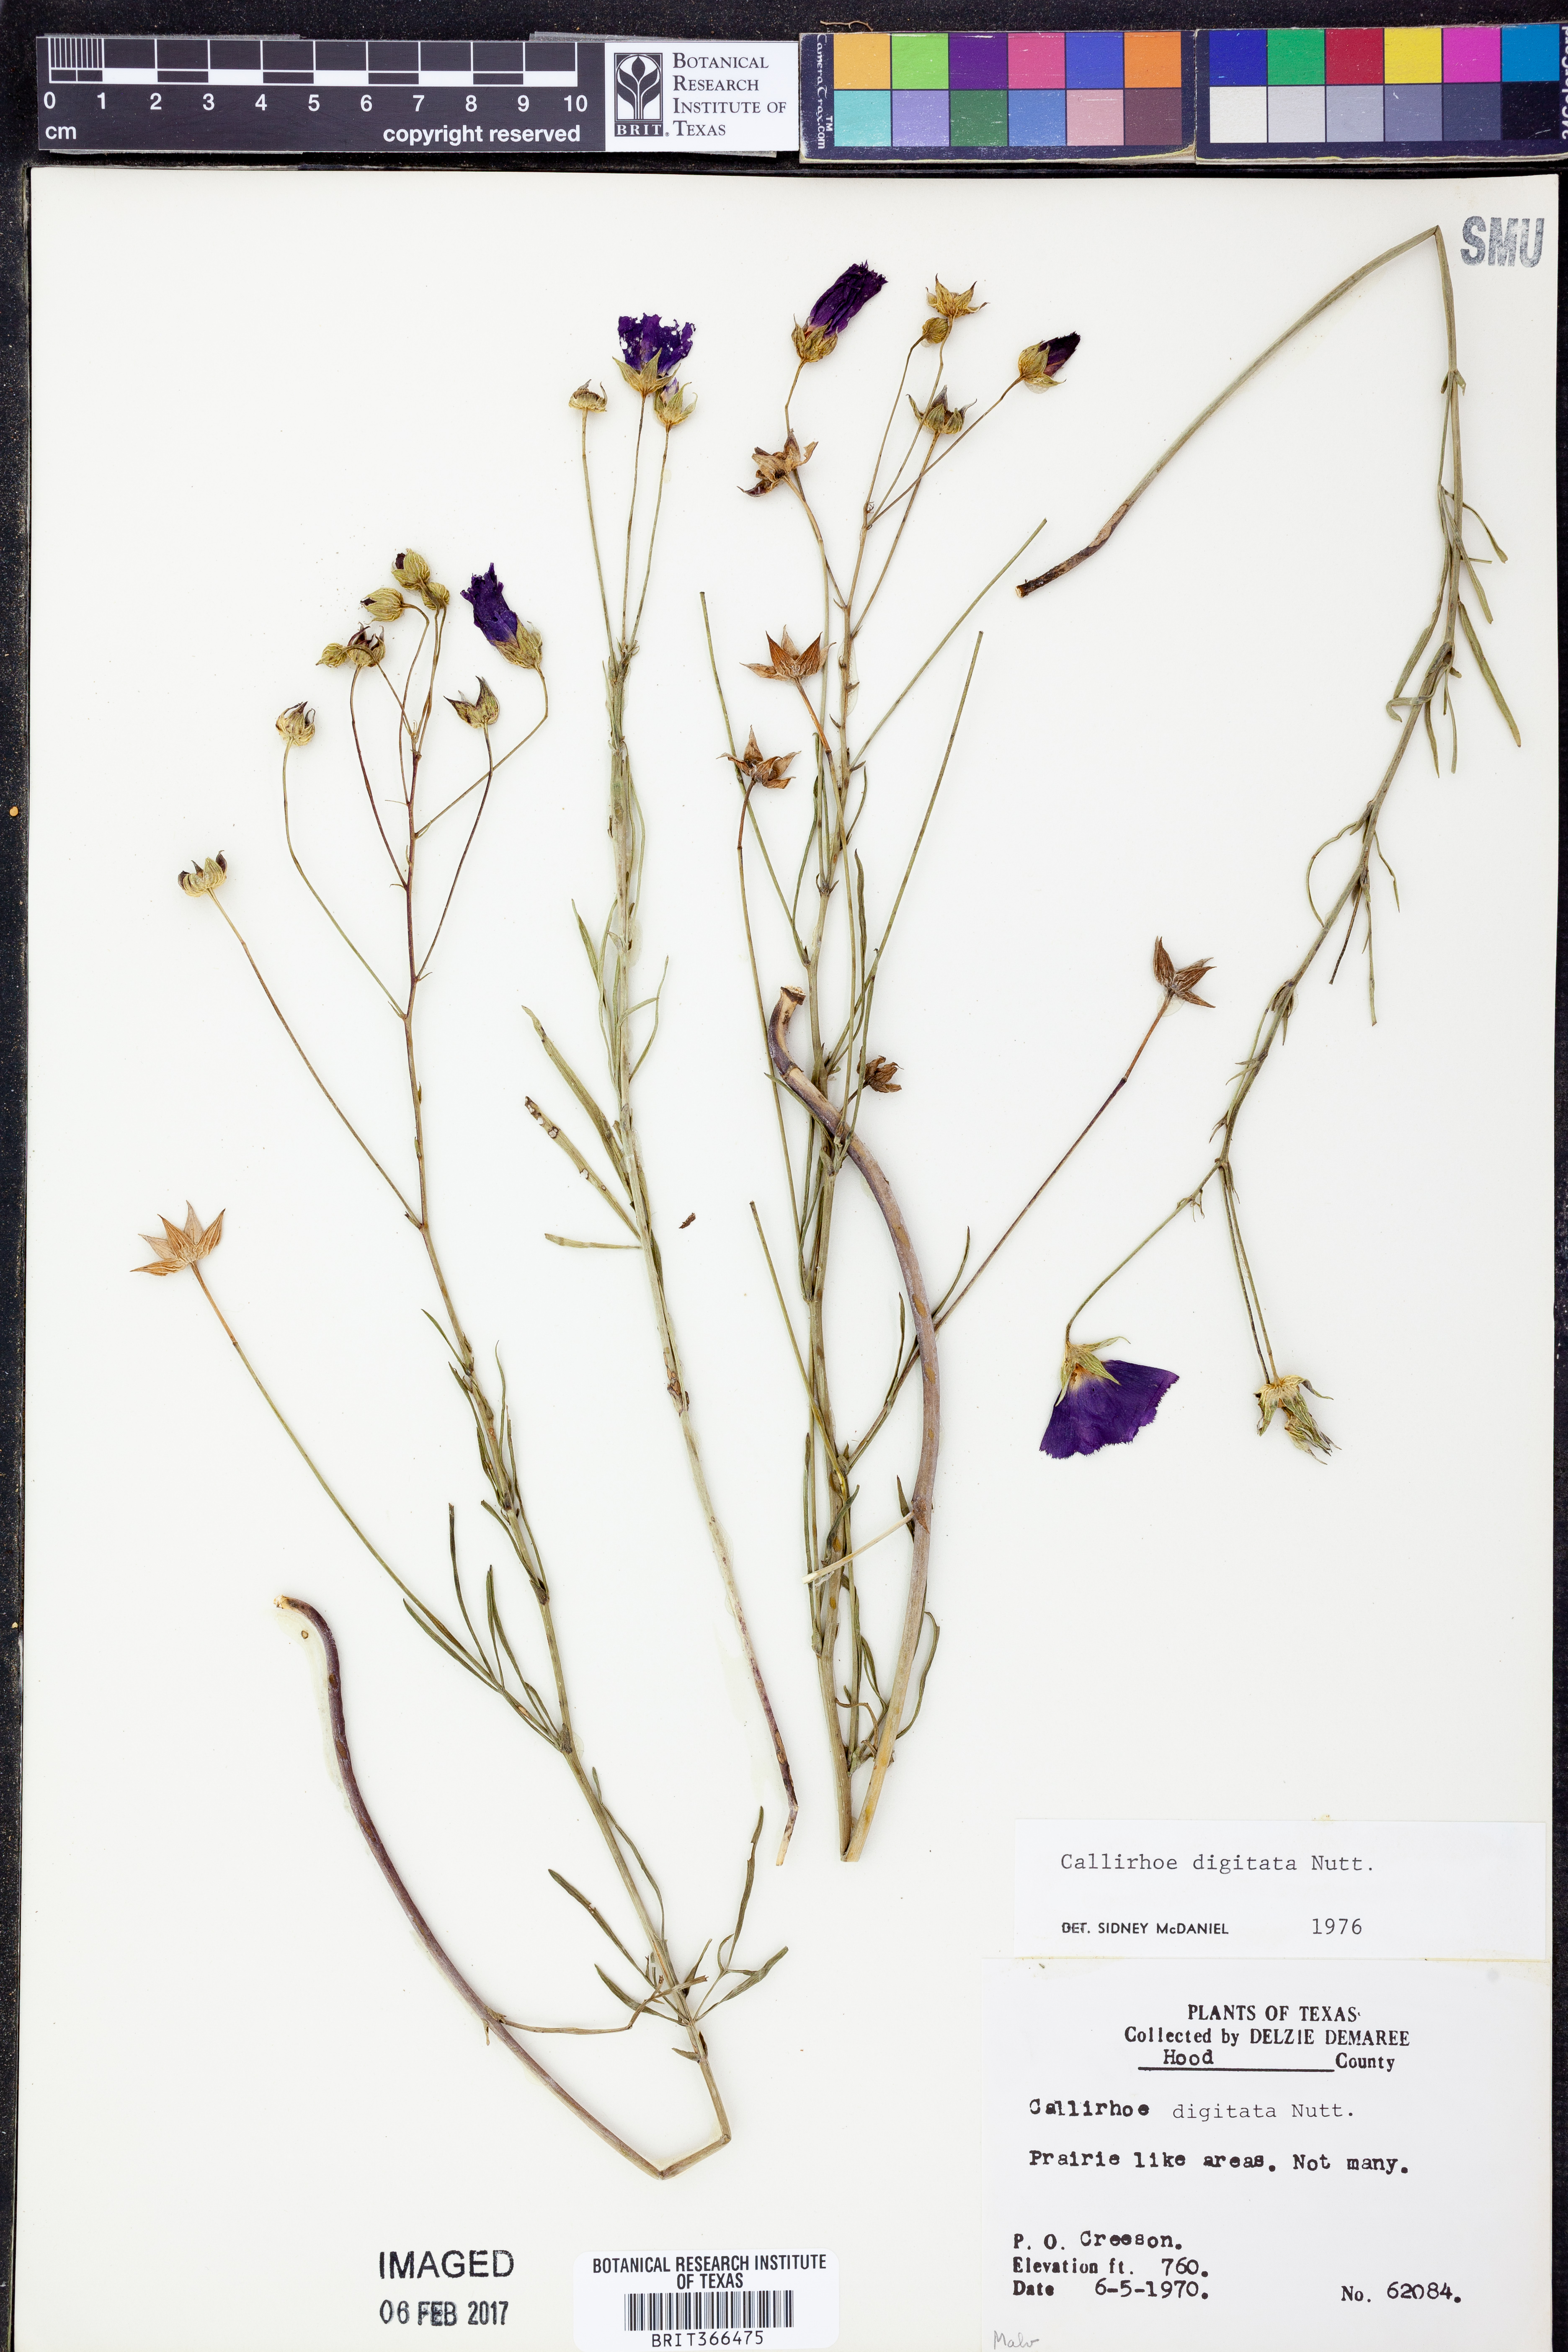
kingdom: Plantae
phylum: Tracheophyta
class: Magnoliopsida
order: Malvales
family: Malvaceae
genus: Callirhoe
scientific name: Callirhoe digitata
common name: Finger poppy-mallow
